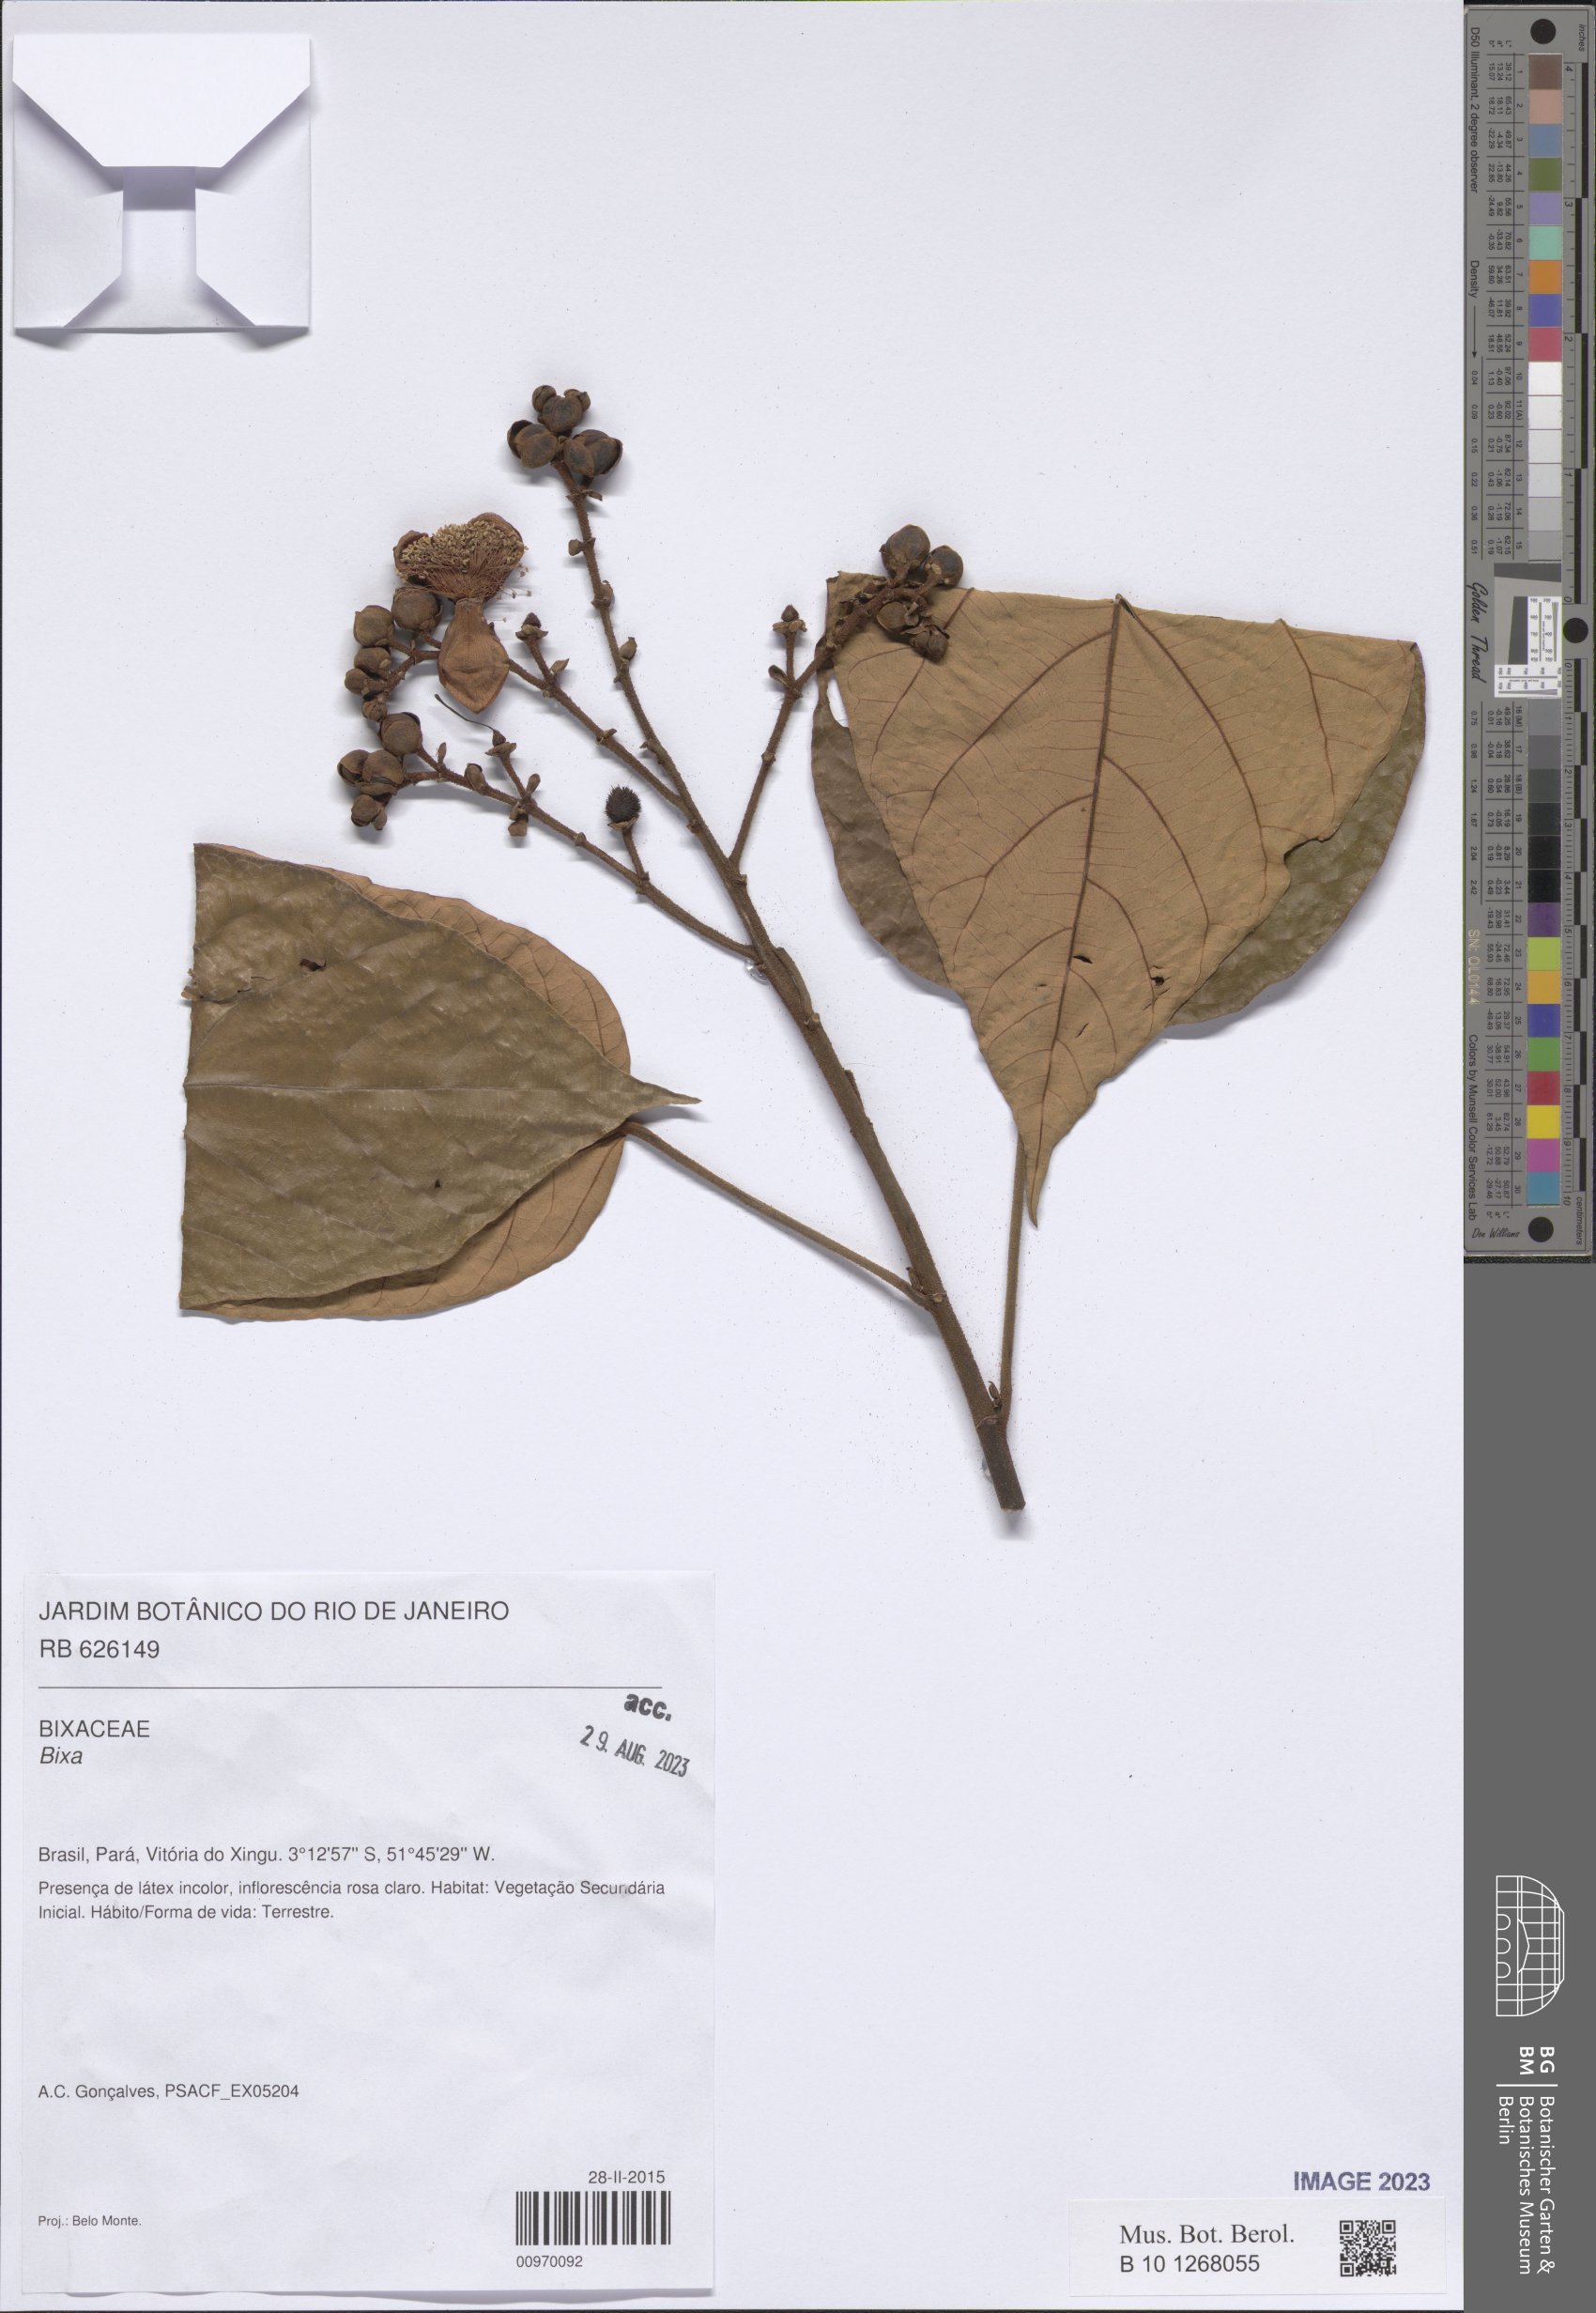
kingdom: Plantae
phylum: Tracheophyta
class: Magnoliopsida
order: Malvales
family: Bixaceae
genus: Bixa
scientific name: Bixa
